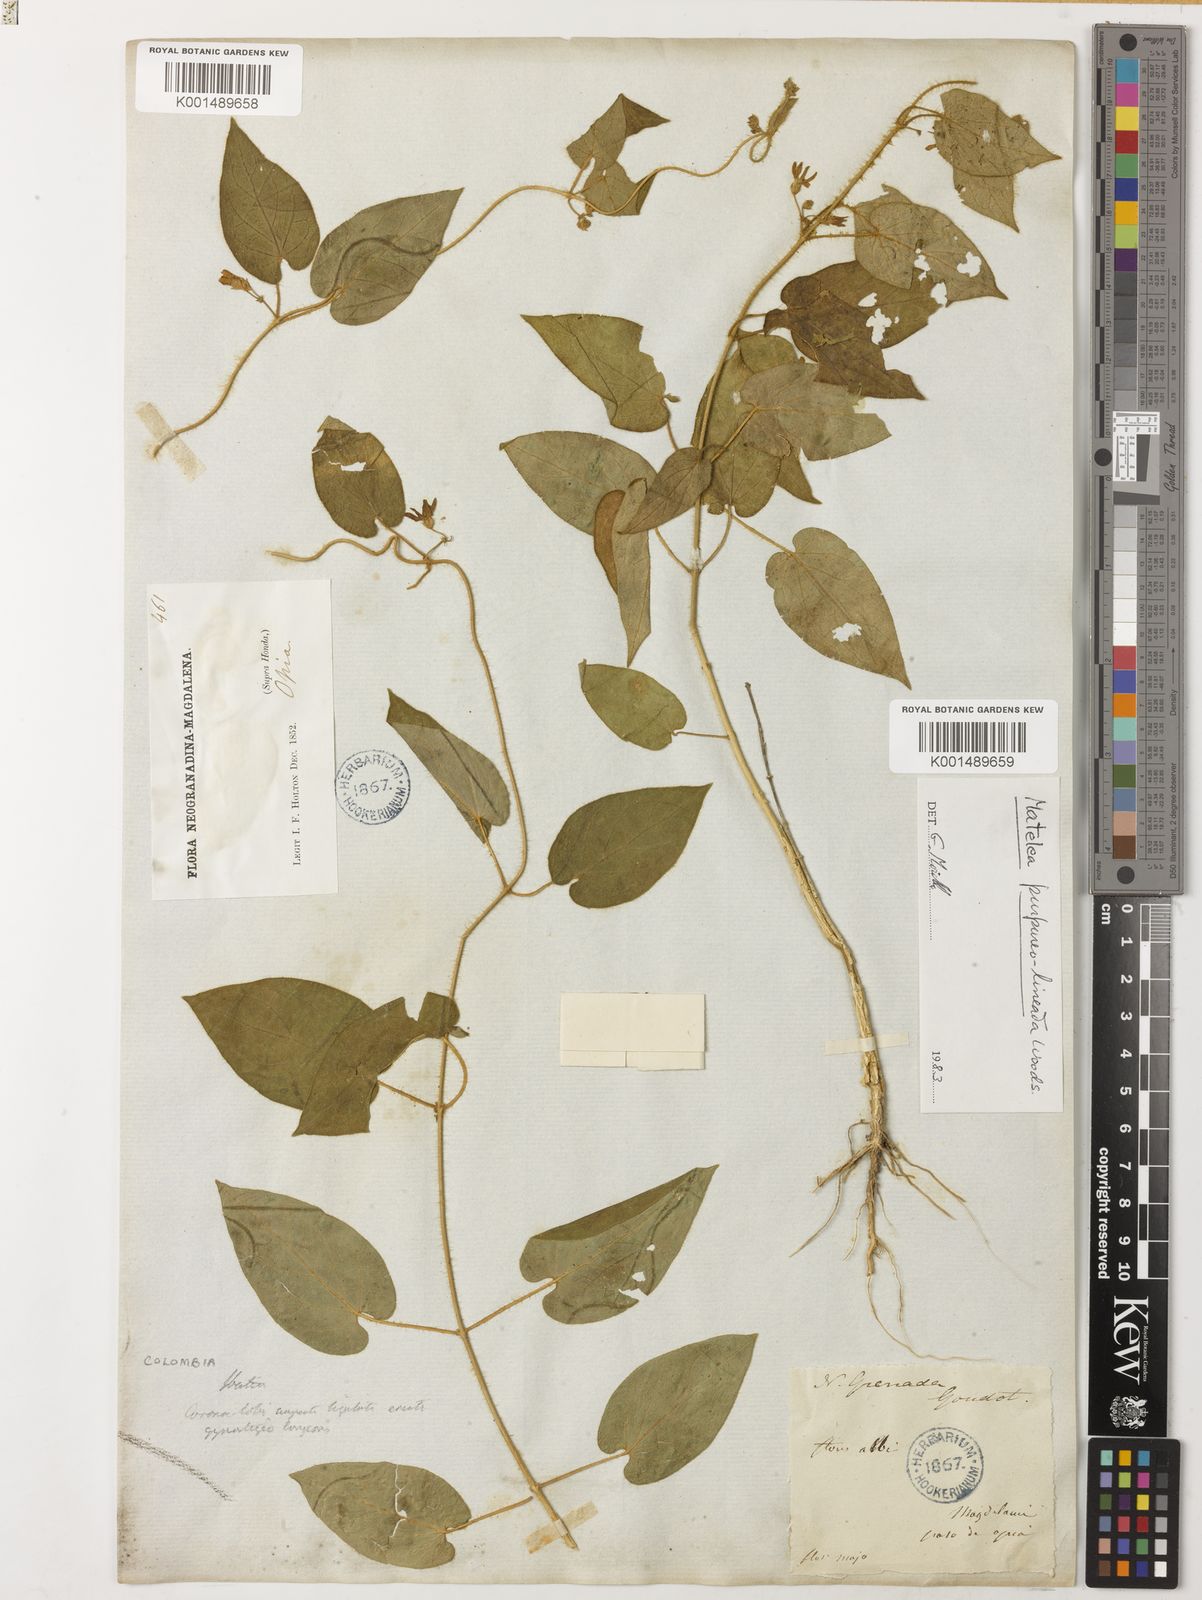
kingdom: Plantae
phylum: Tracheophyta
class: Magnoliopsida
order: Gentianales
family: Apocynaceae
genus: Matelea
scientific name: Matelea purpureolineata
